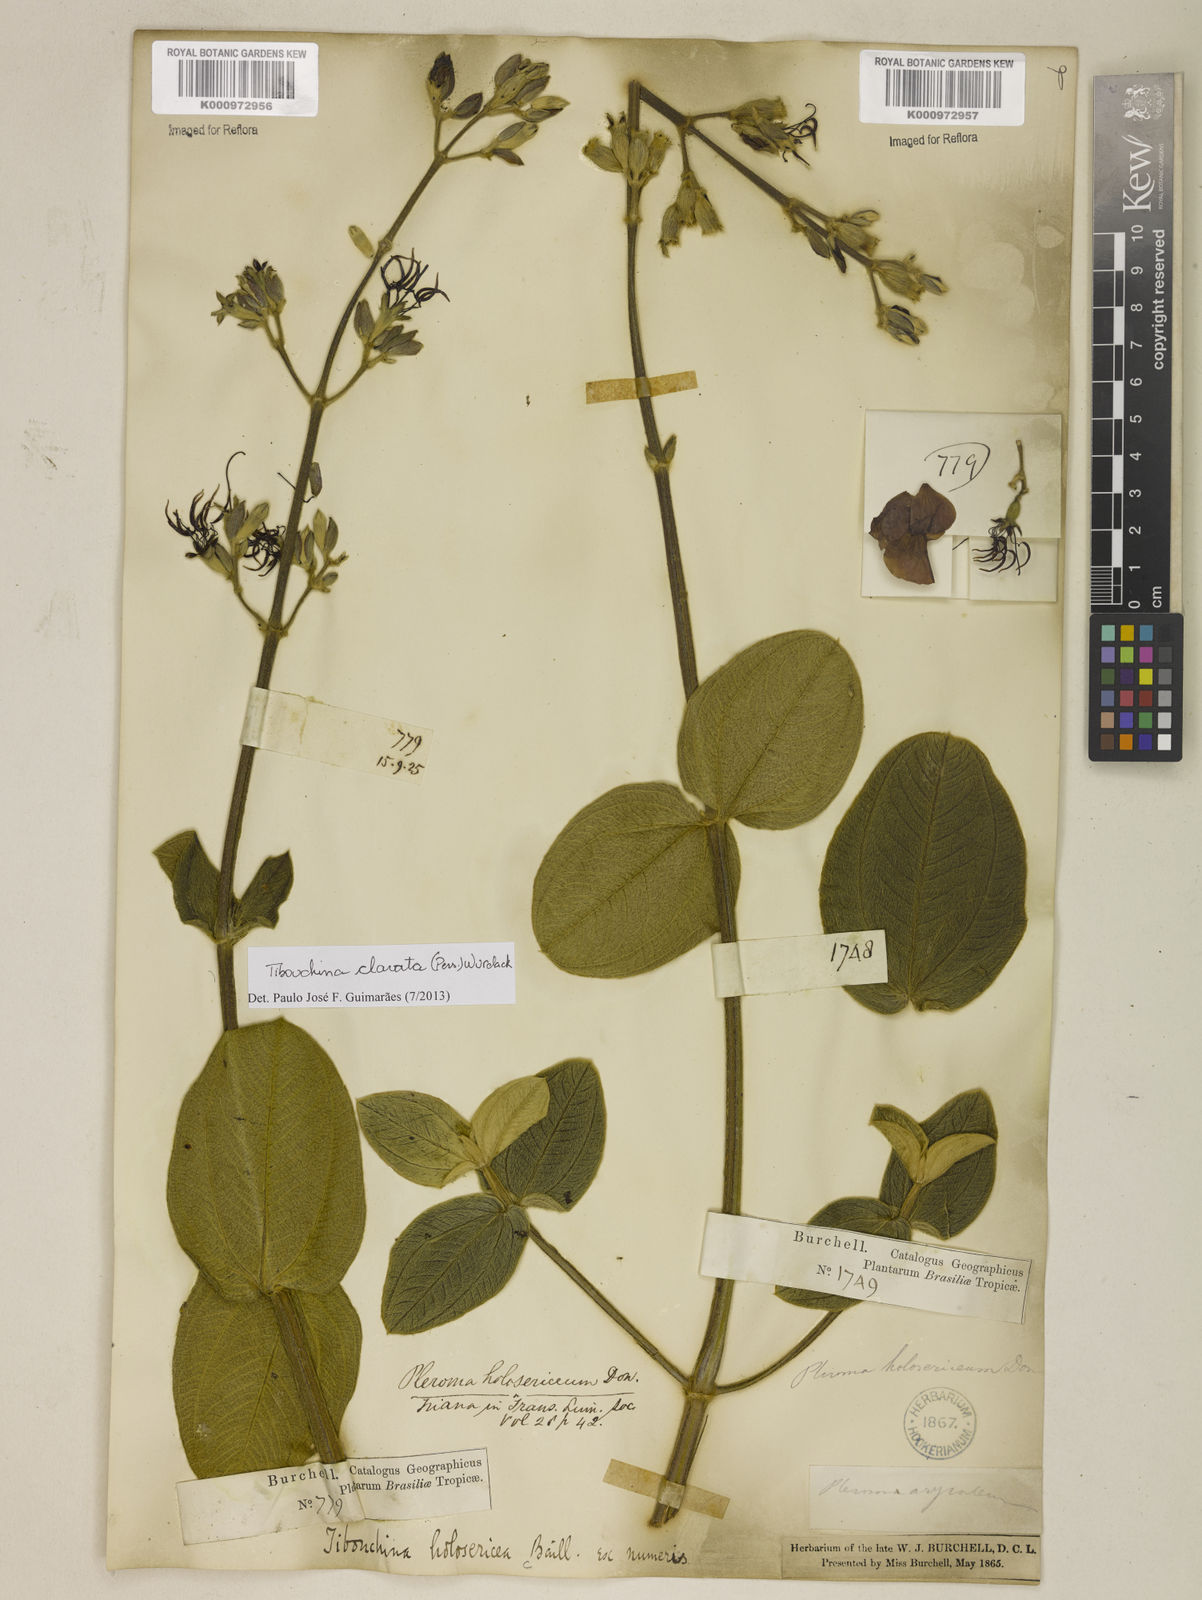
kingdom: Plantae
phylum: Tracheophyta
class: Magnoliopsida
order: Myrtales
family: Melastomataceae
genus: Pleroma
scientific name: Pleroma clavatum
